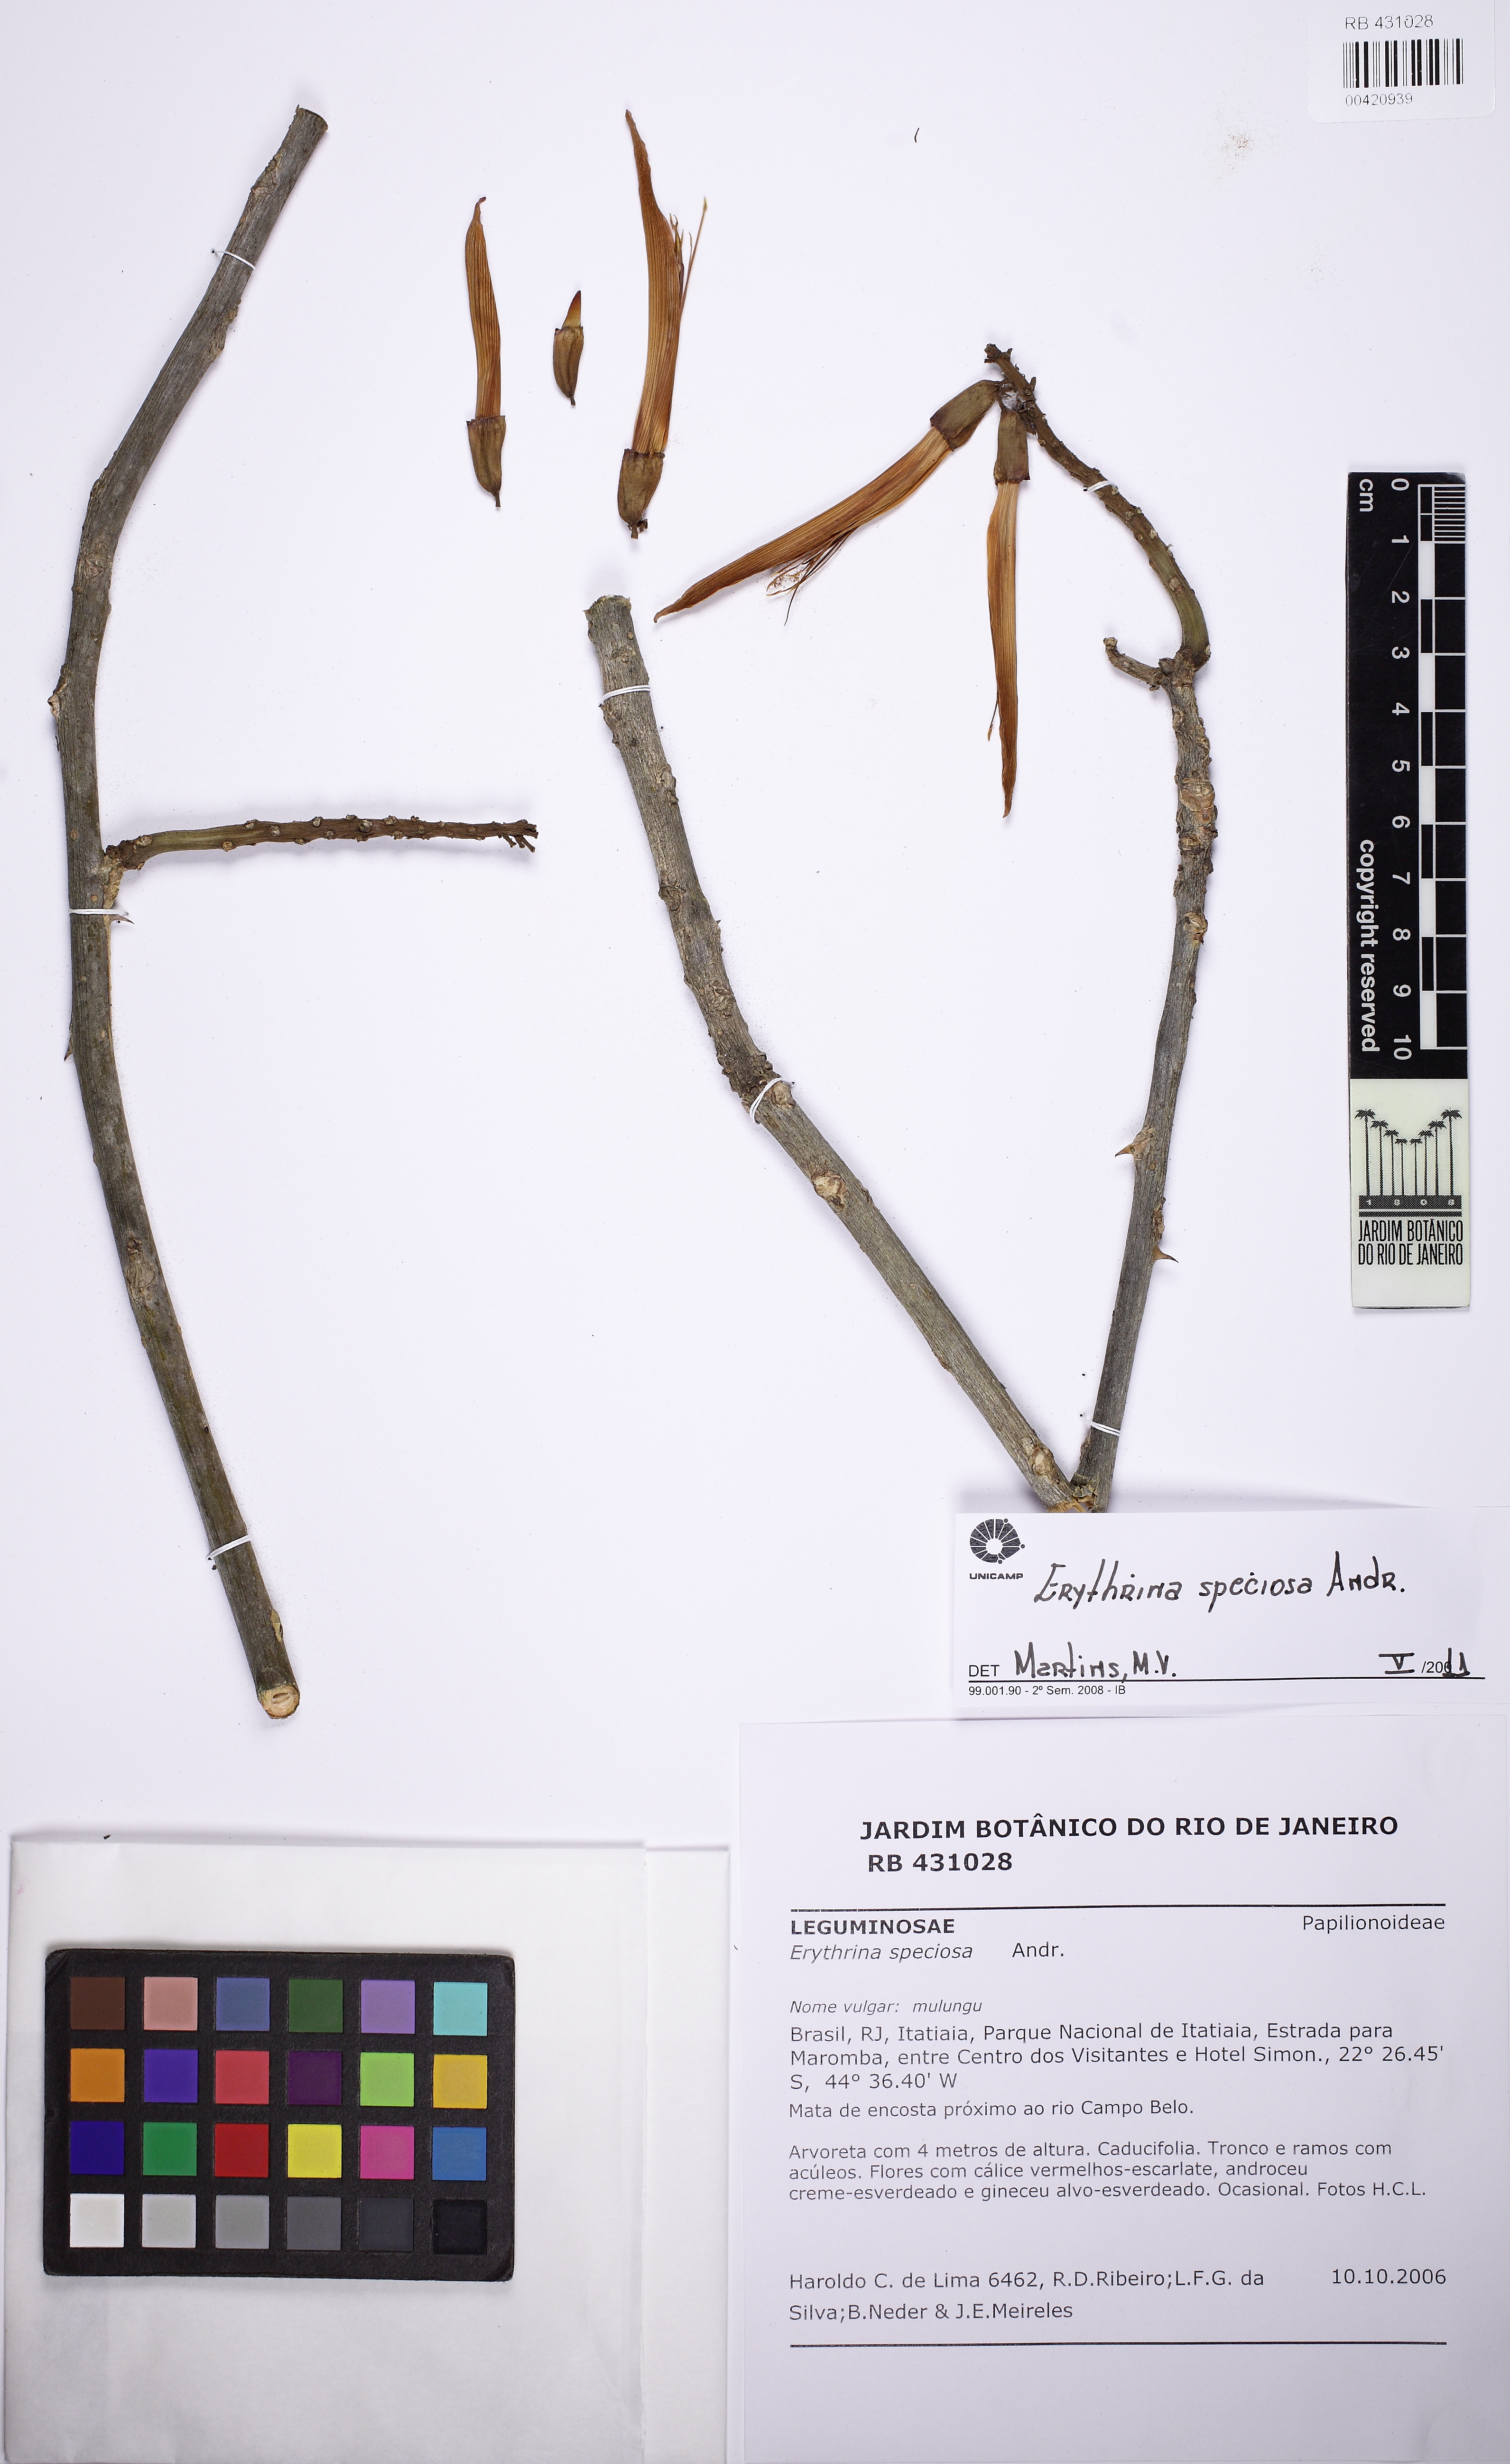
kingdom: Plantae
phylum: Tracheophyta
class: Magnoliopsida
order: Fabales
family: Fabaceae
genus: Erythrina
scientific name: Erythrina speciosa
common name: Coral tree
